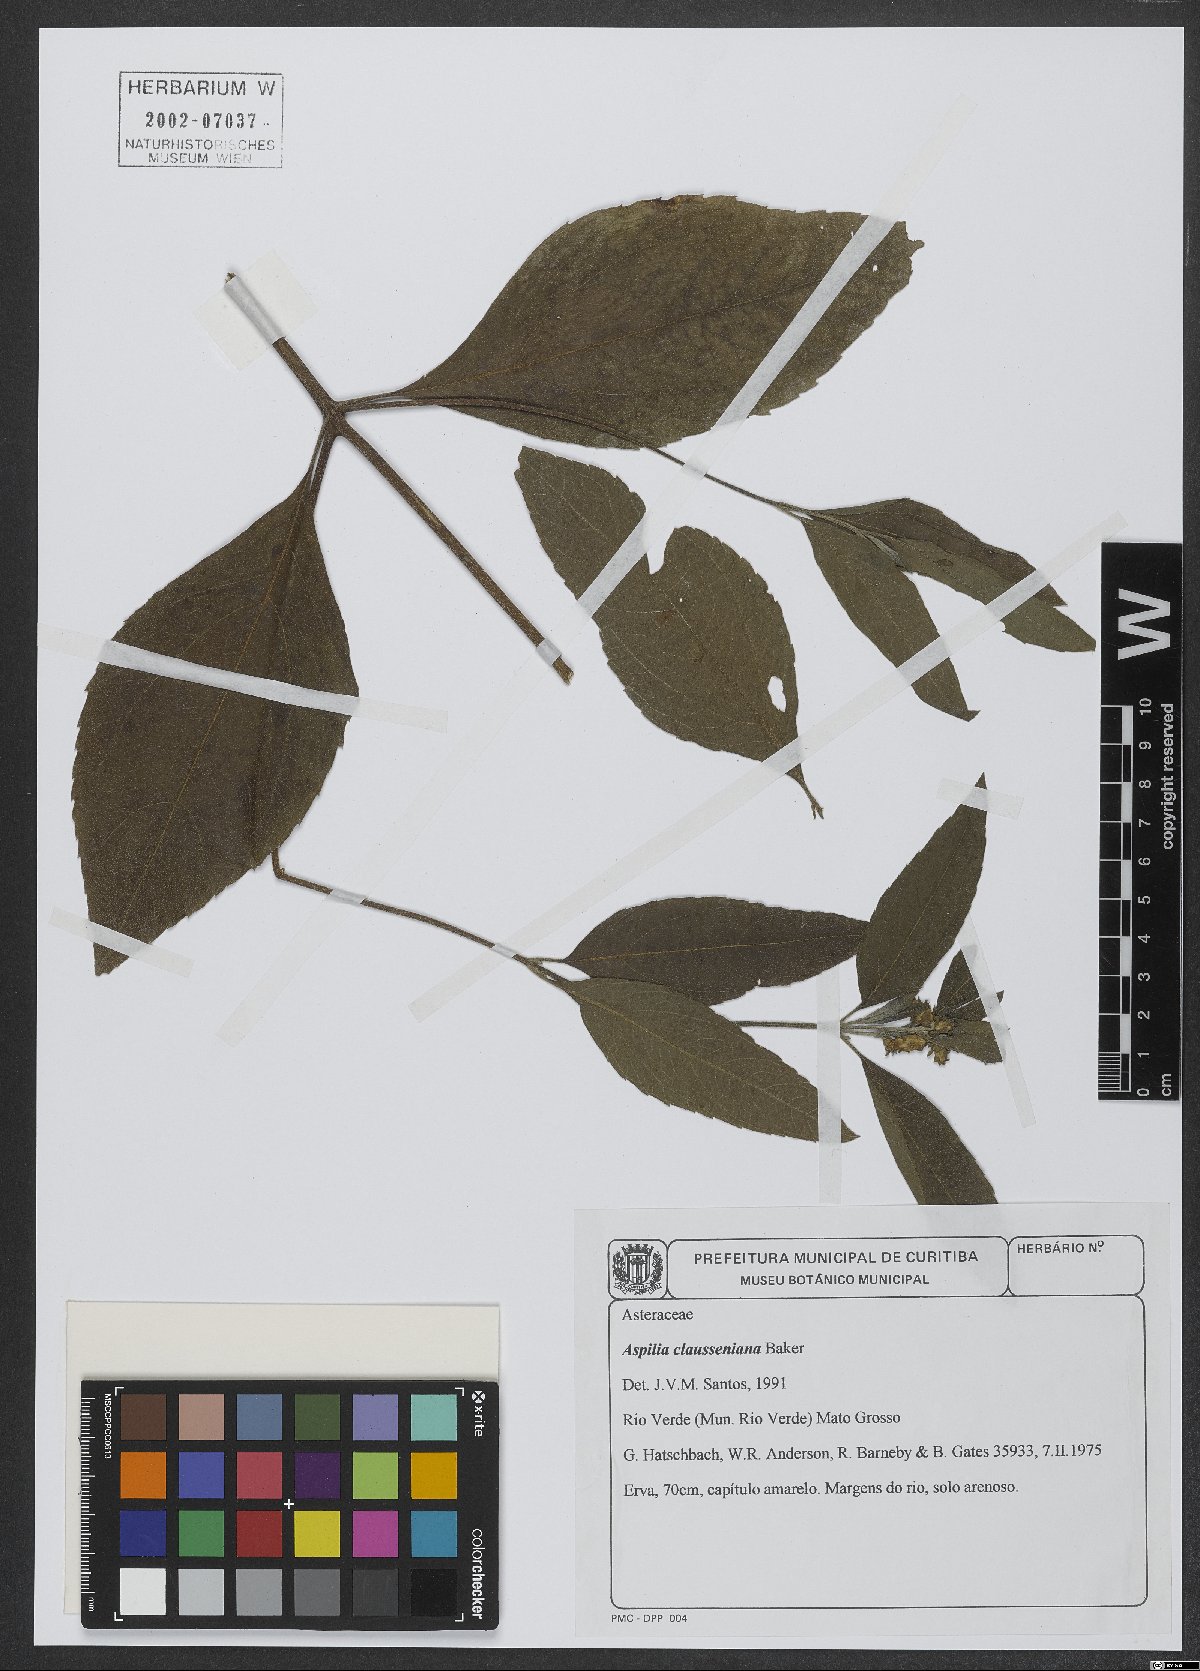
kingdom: Plantae
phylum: Tracheophyta
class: Magnoliopsida
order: Asterales
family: Asteraceae
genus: Aspilia
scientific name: Aspilia clausseniana
